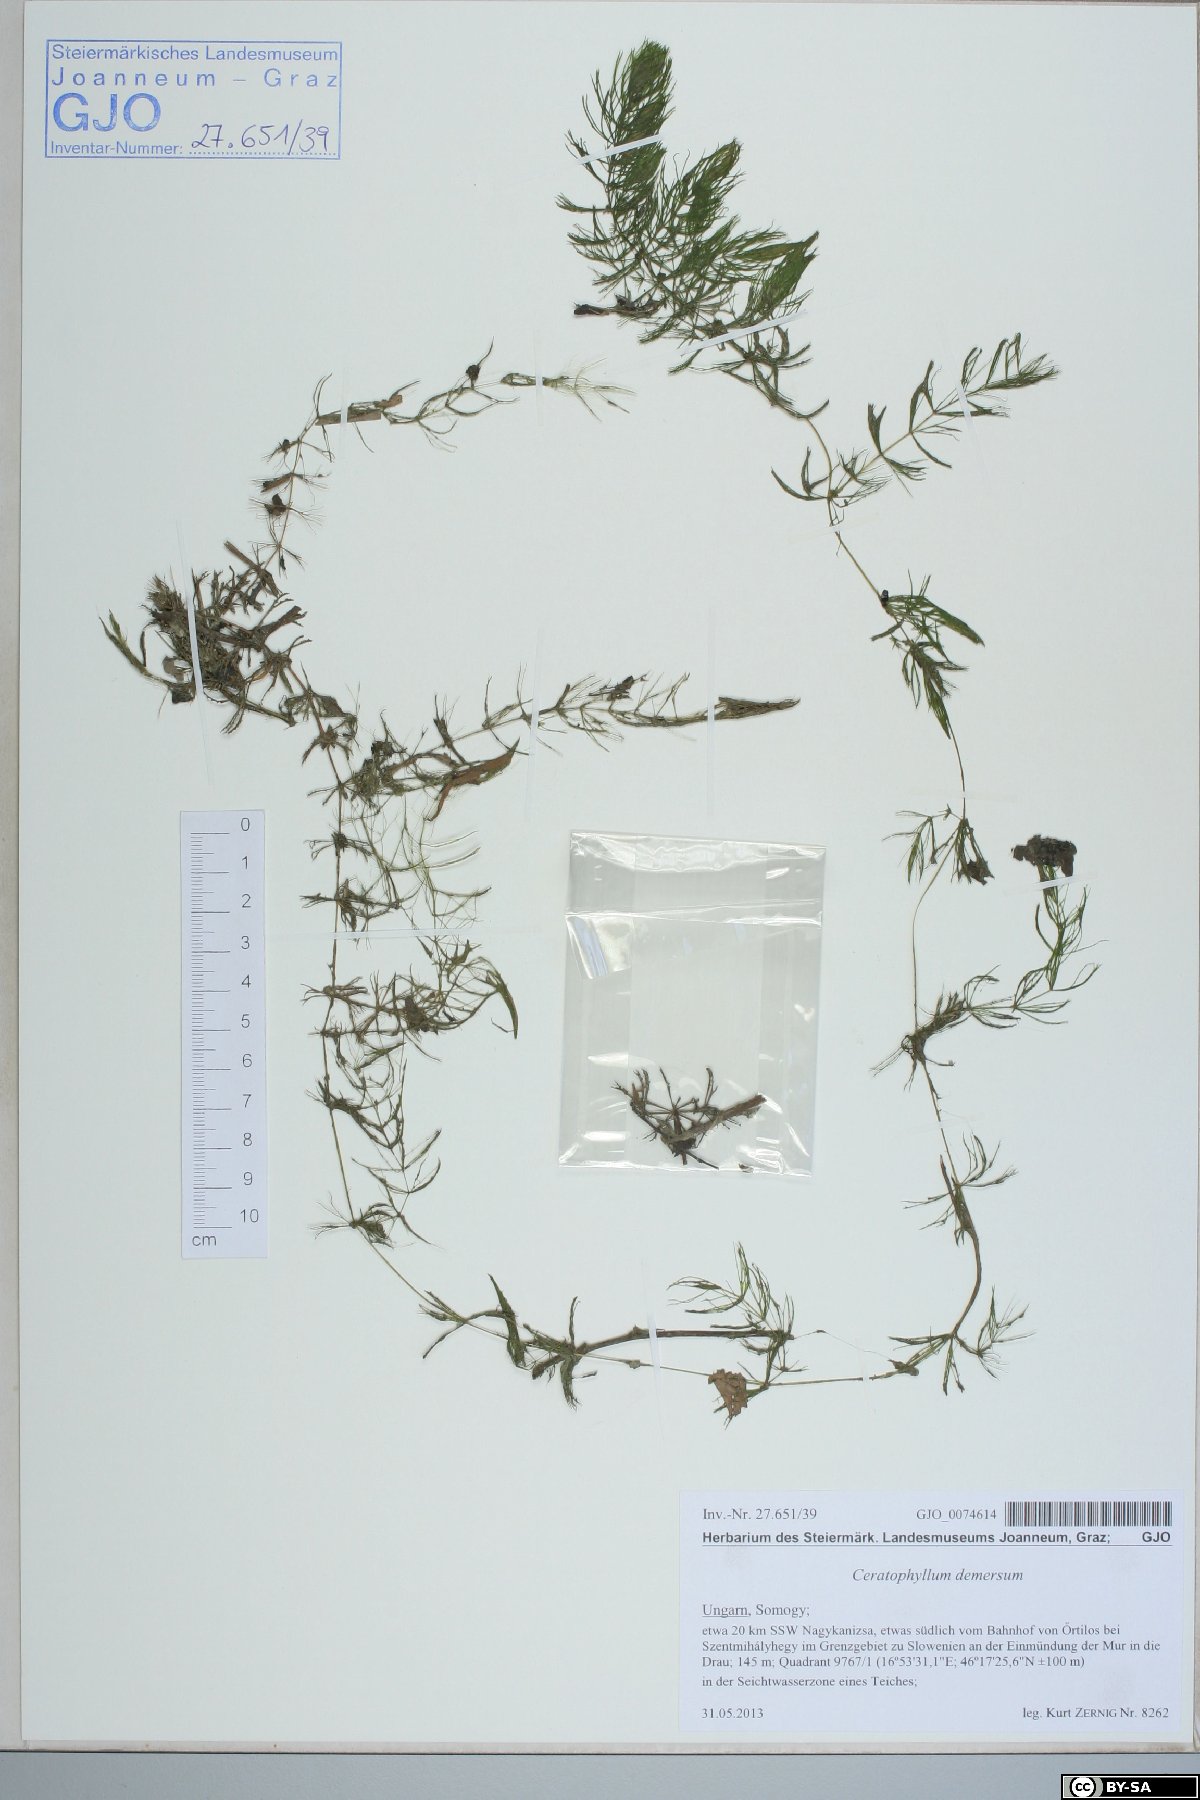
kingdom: Plantae
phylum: Tracheophyta
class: Magnoliopsida
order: Ceratophyllales
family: Ceratophyllaceae
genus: Ceratophyllum
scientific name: Ceratophyllum demersum
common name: Rigid hornwort
